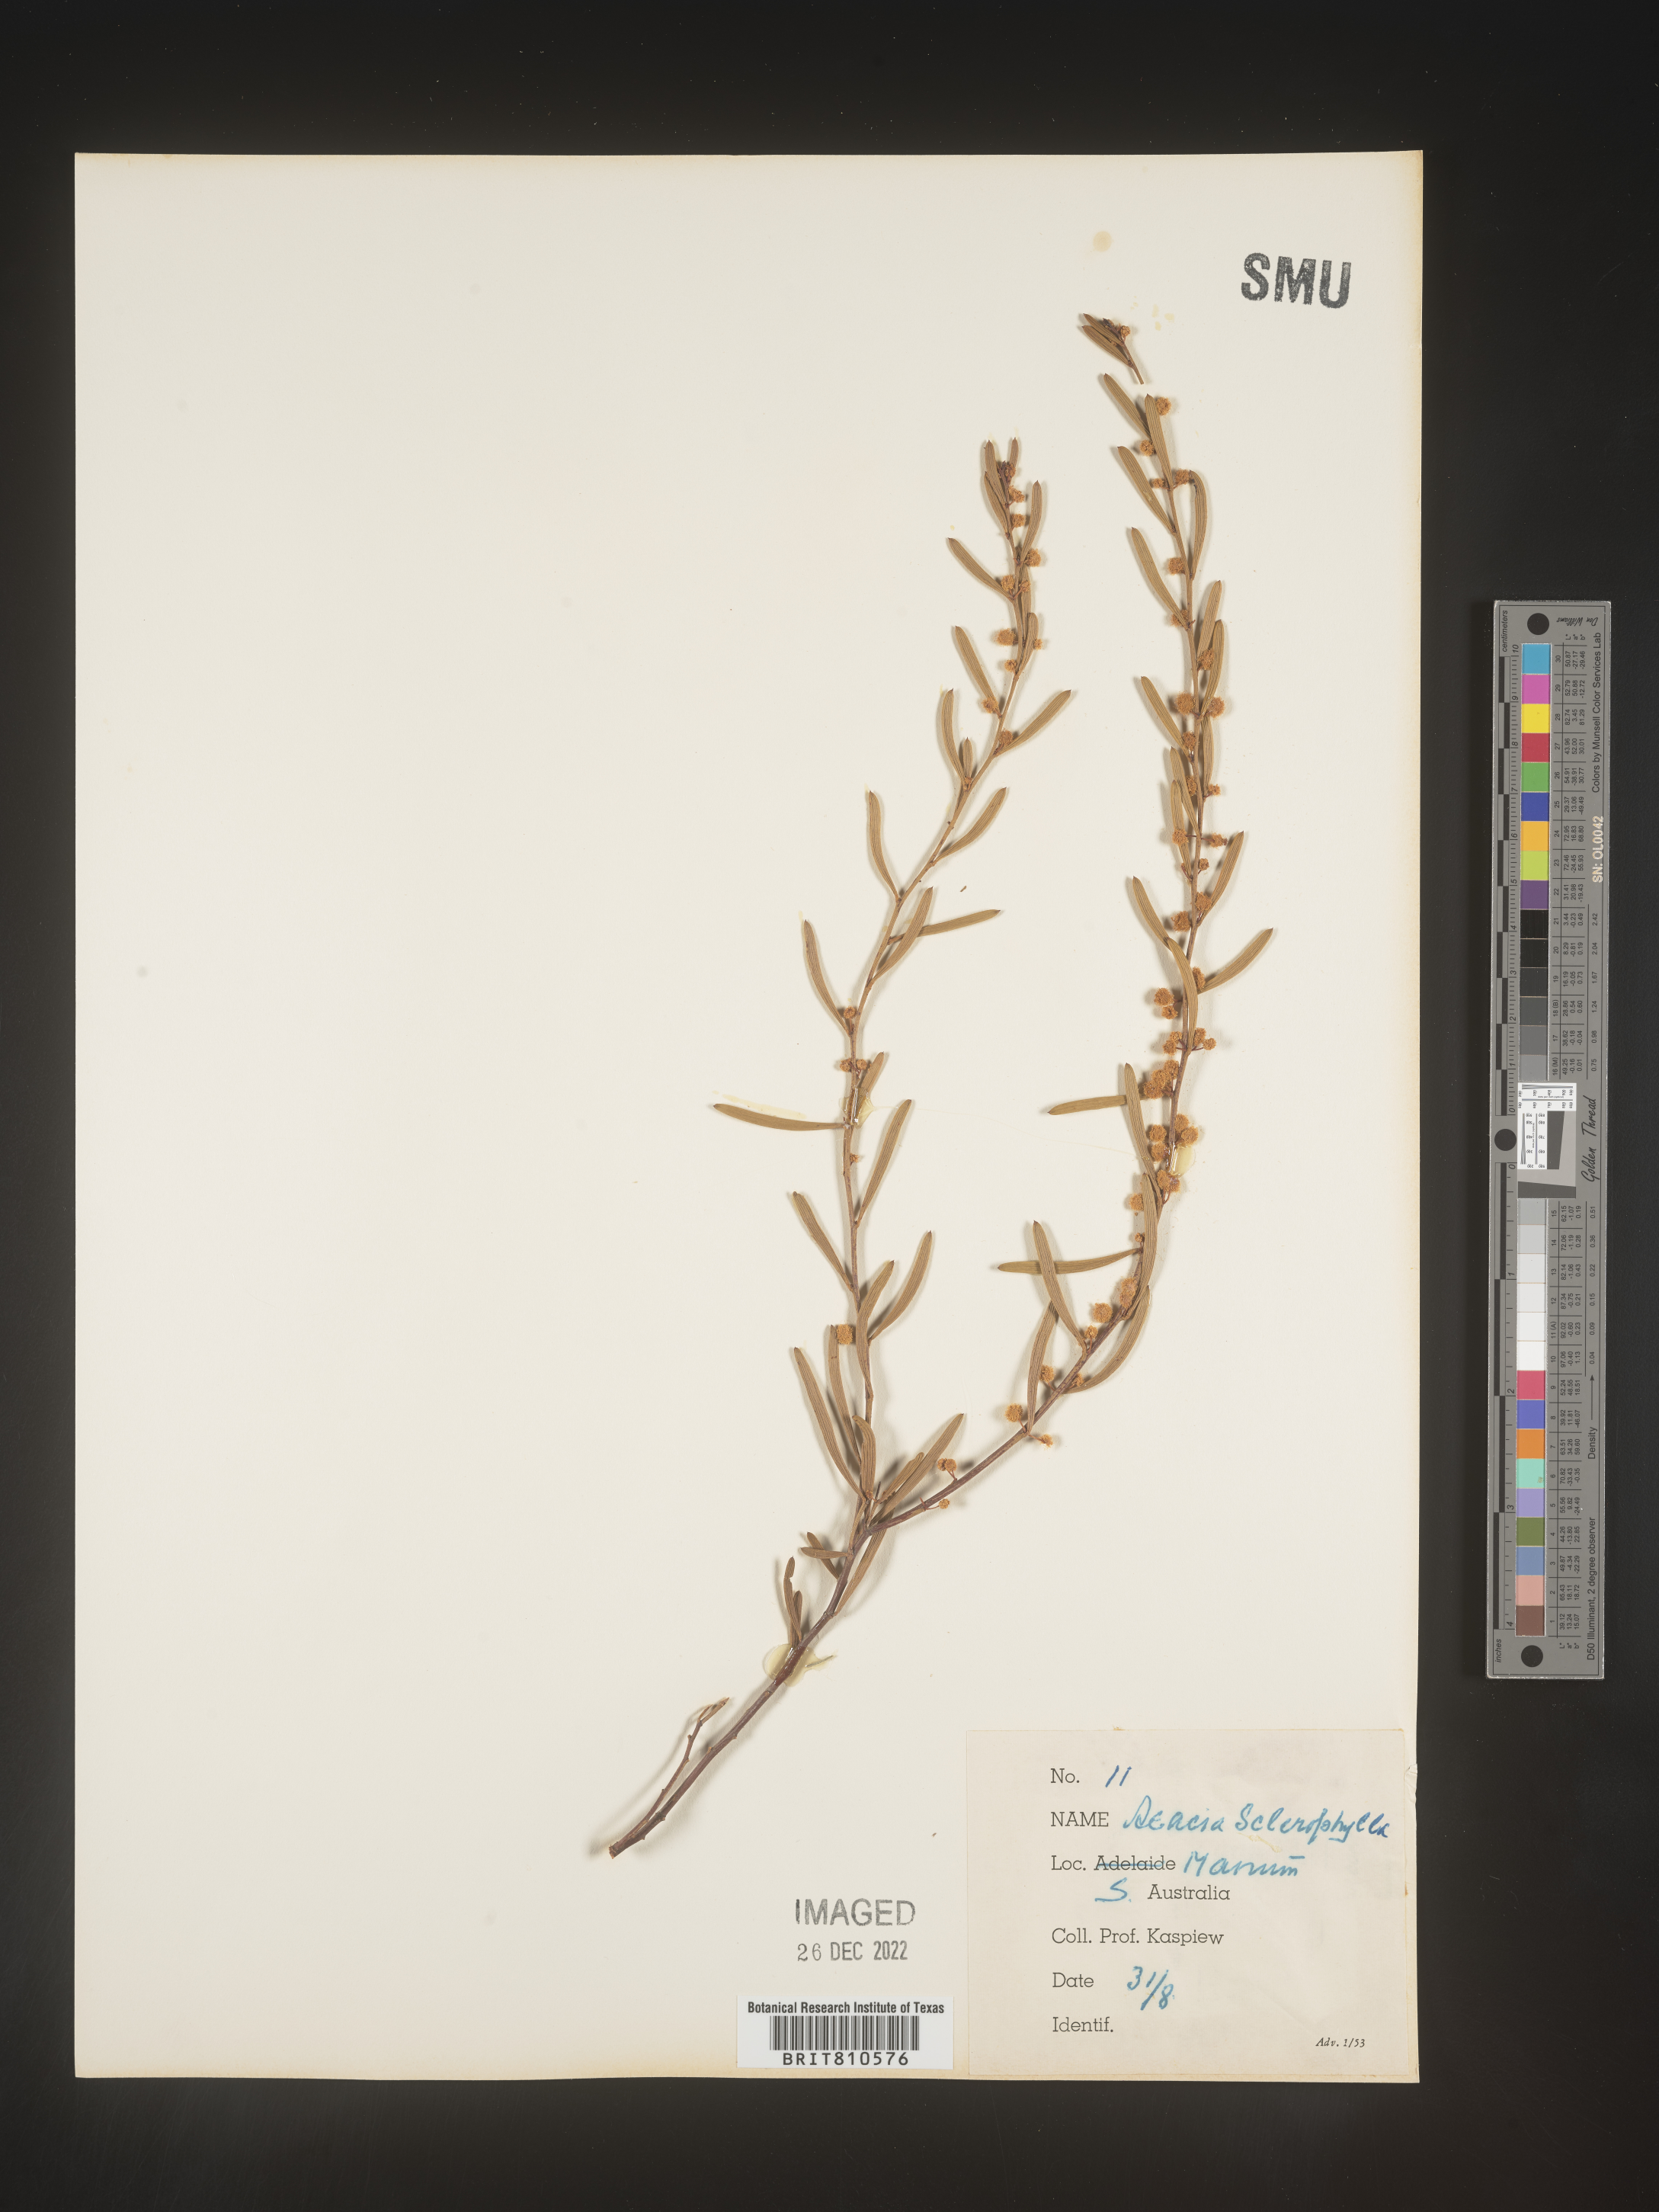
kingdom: Plantae
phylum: Tracheophyta
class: Magnoliopsida
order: Fabales
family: Fabaceae
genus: Acacia
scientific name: Acacia
